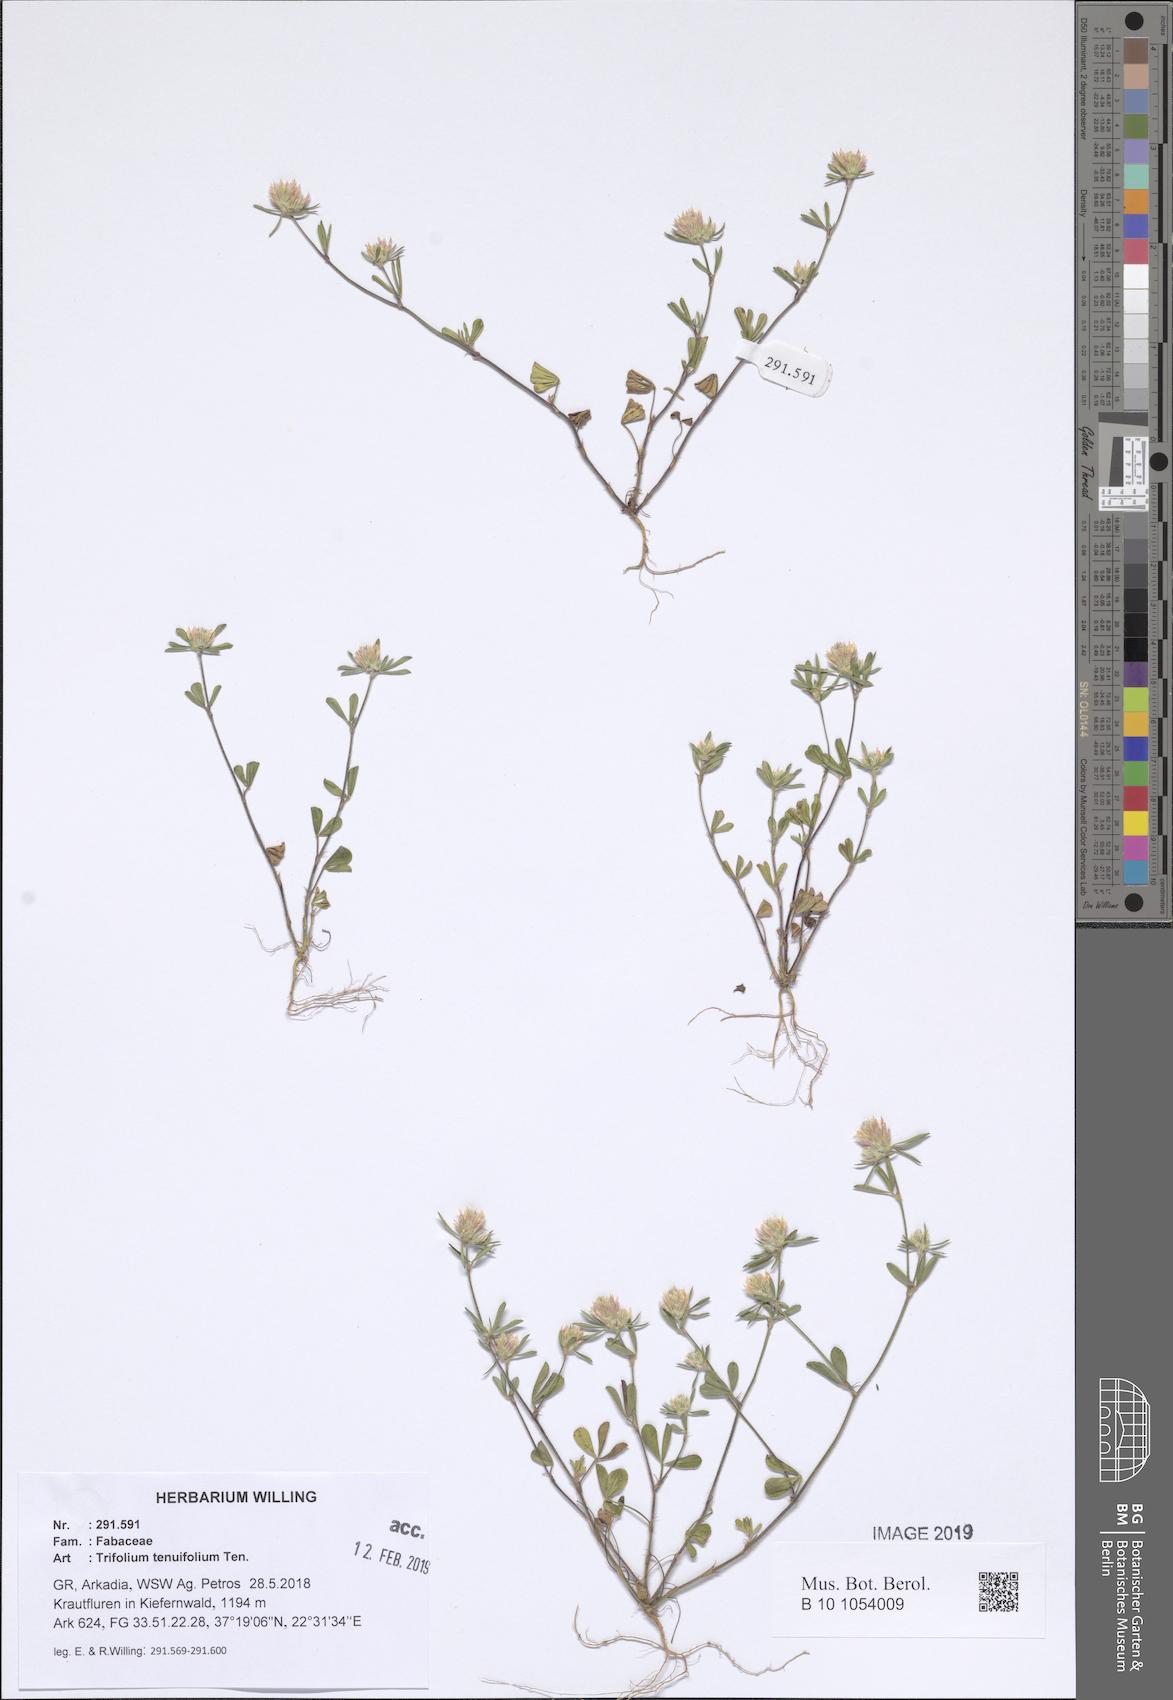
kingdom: Plantae
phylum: Tracheophyta
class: Magnoliopsida
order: Fabales
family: Fabaceae
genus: Trifolium
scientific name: Trifolium tenuifolium
